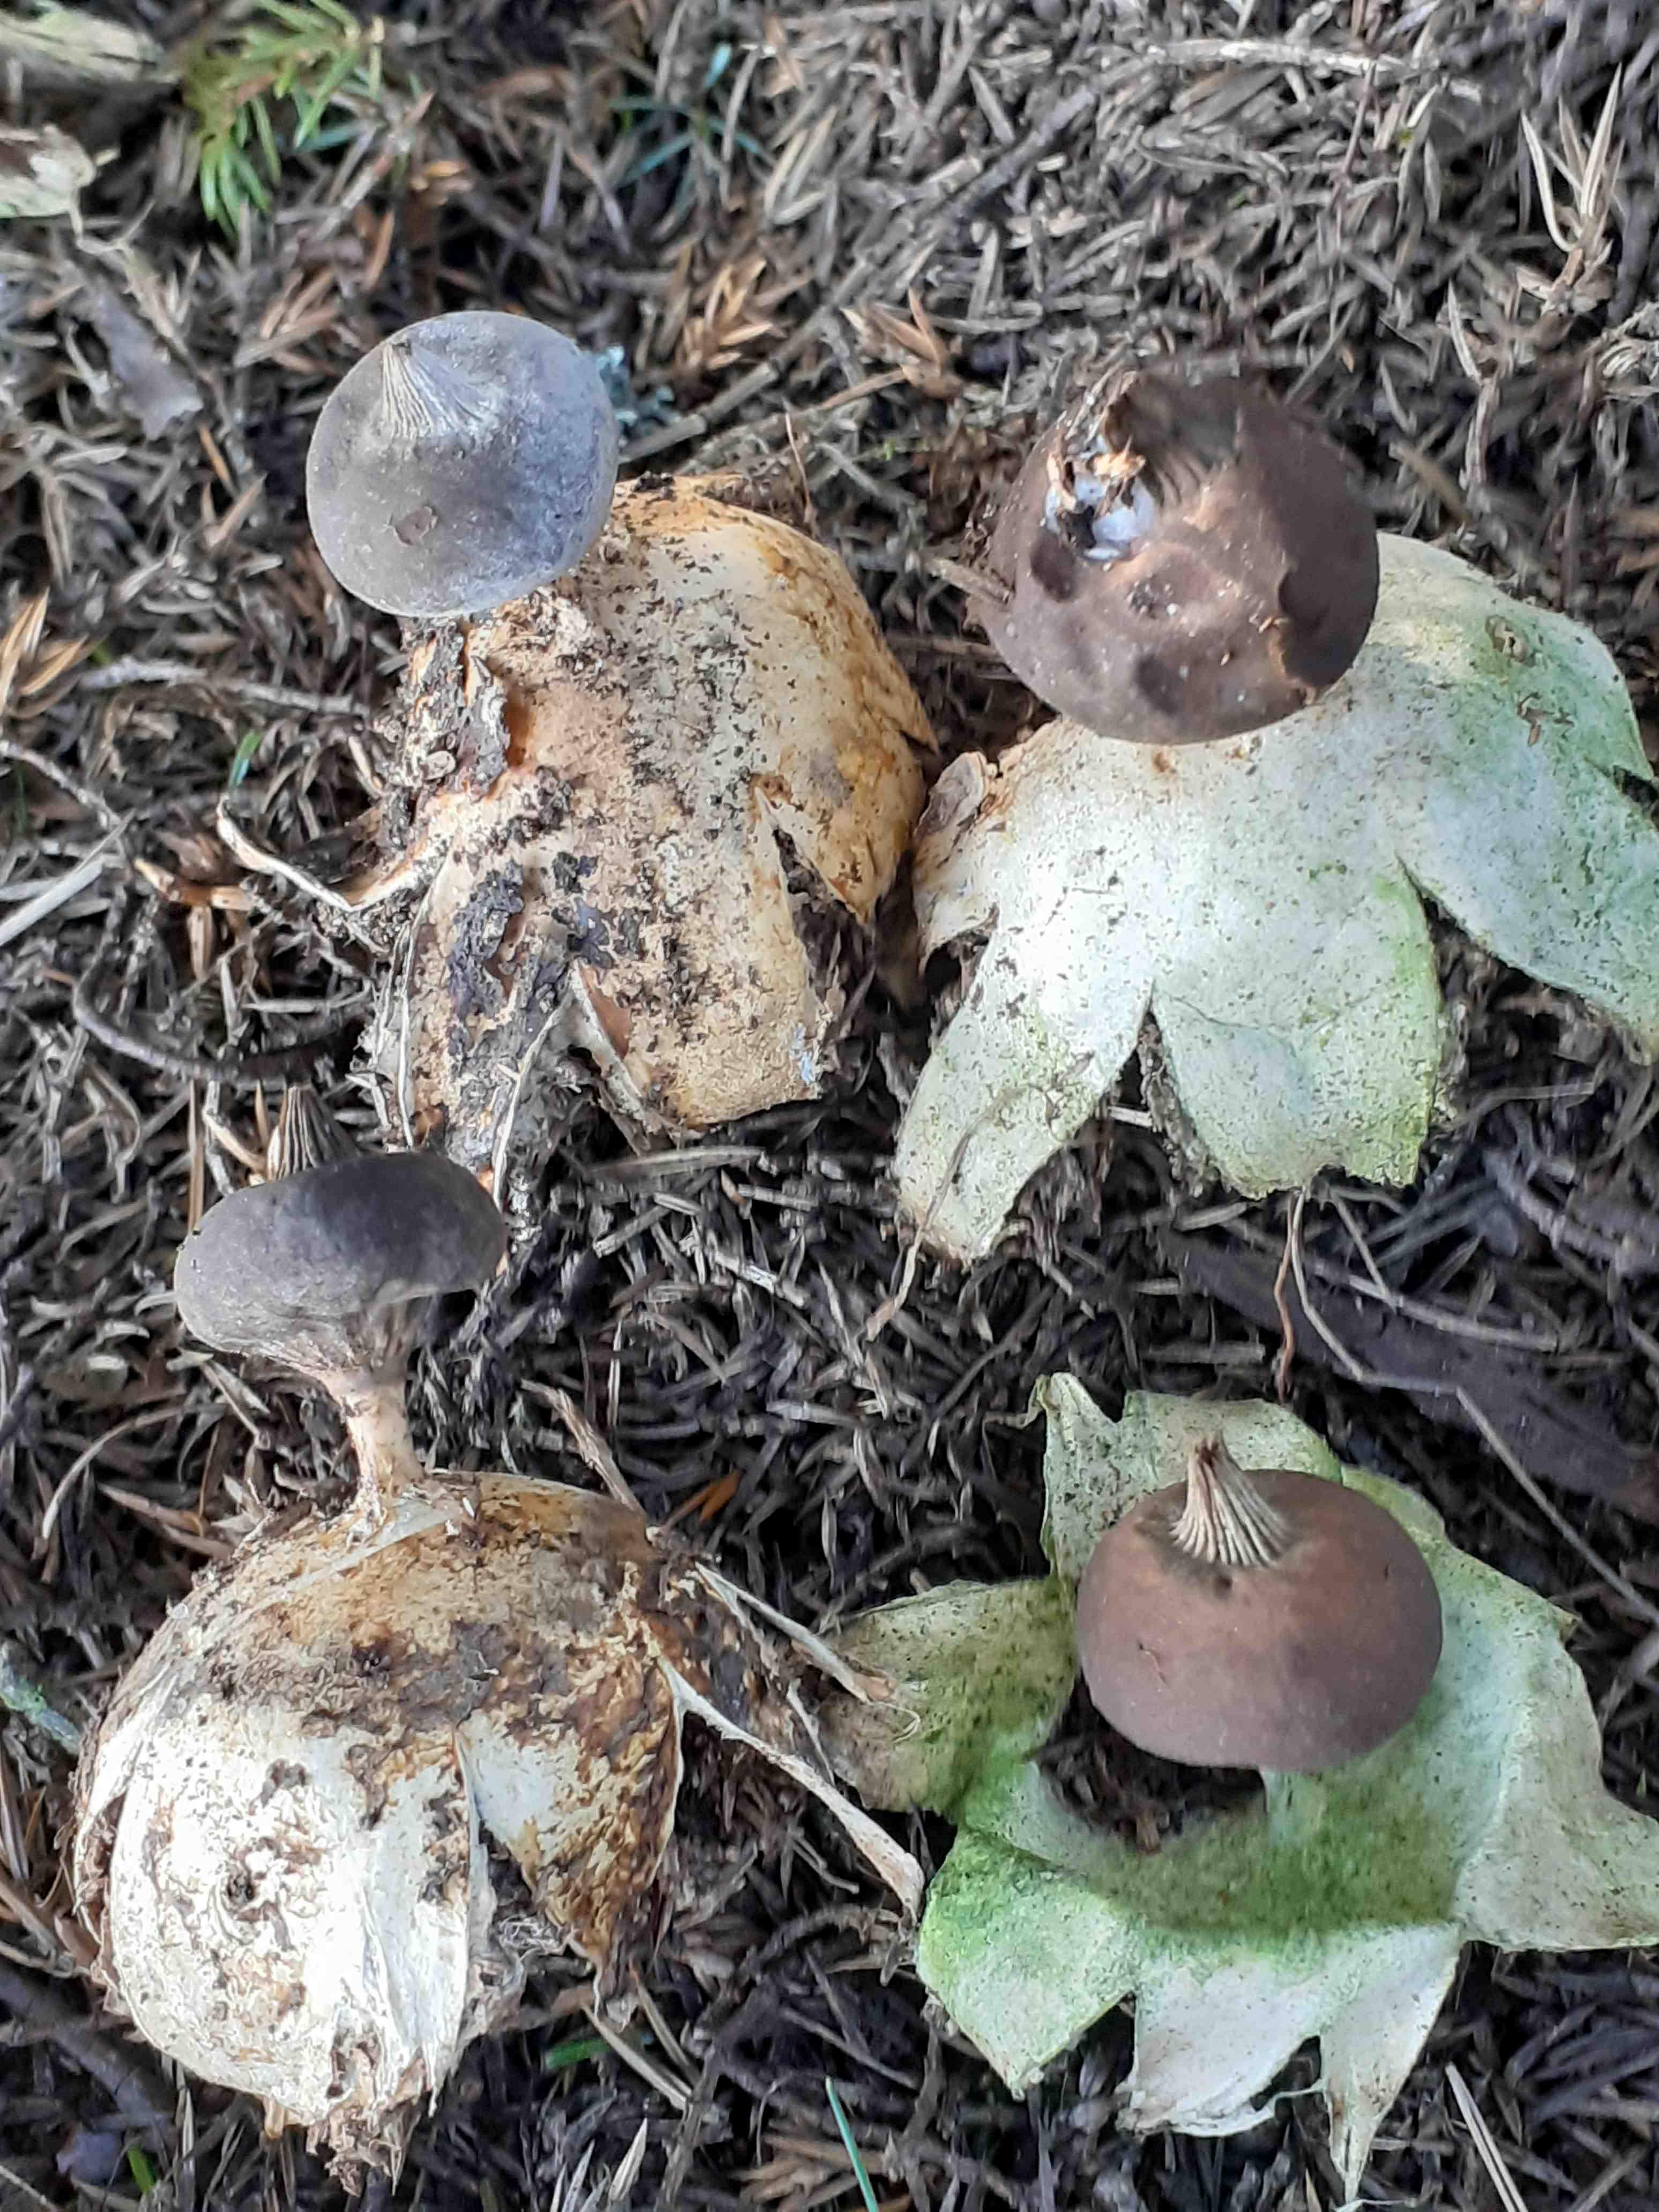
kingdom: Fungi
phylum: Basidiomycota
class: Agaricomycetes
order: Geastrales
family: Geastraceae
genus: Geastrum
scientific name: Geastrum pectinatum
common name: stilket stjernebold
